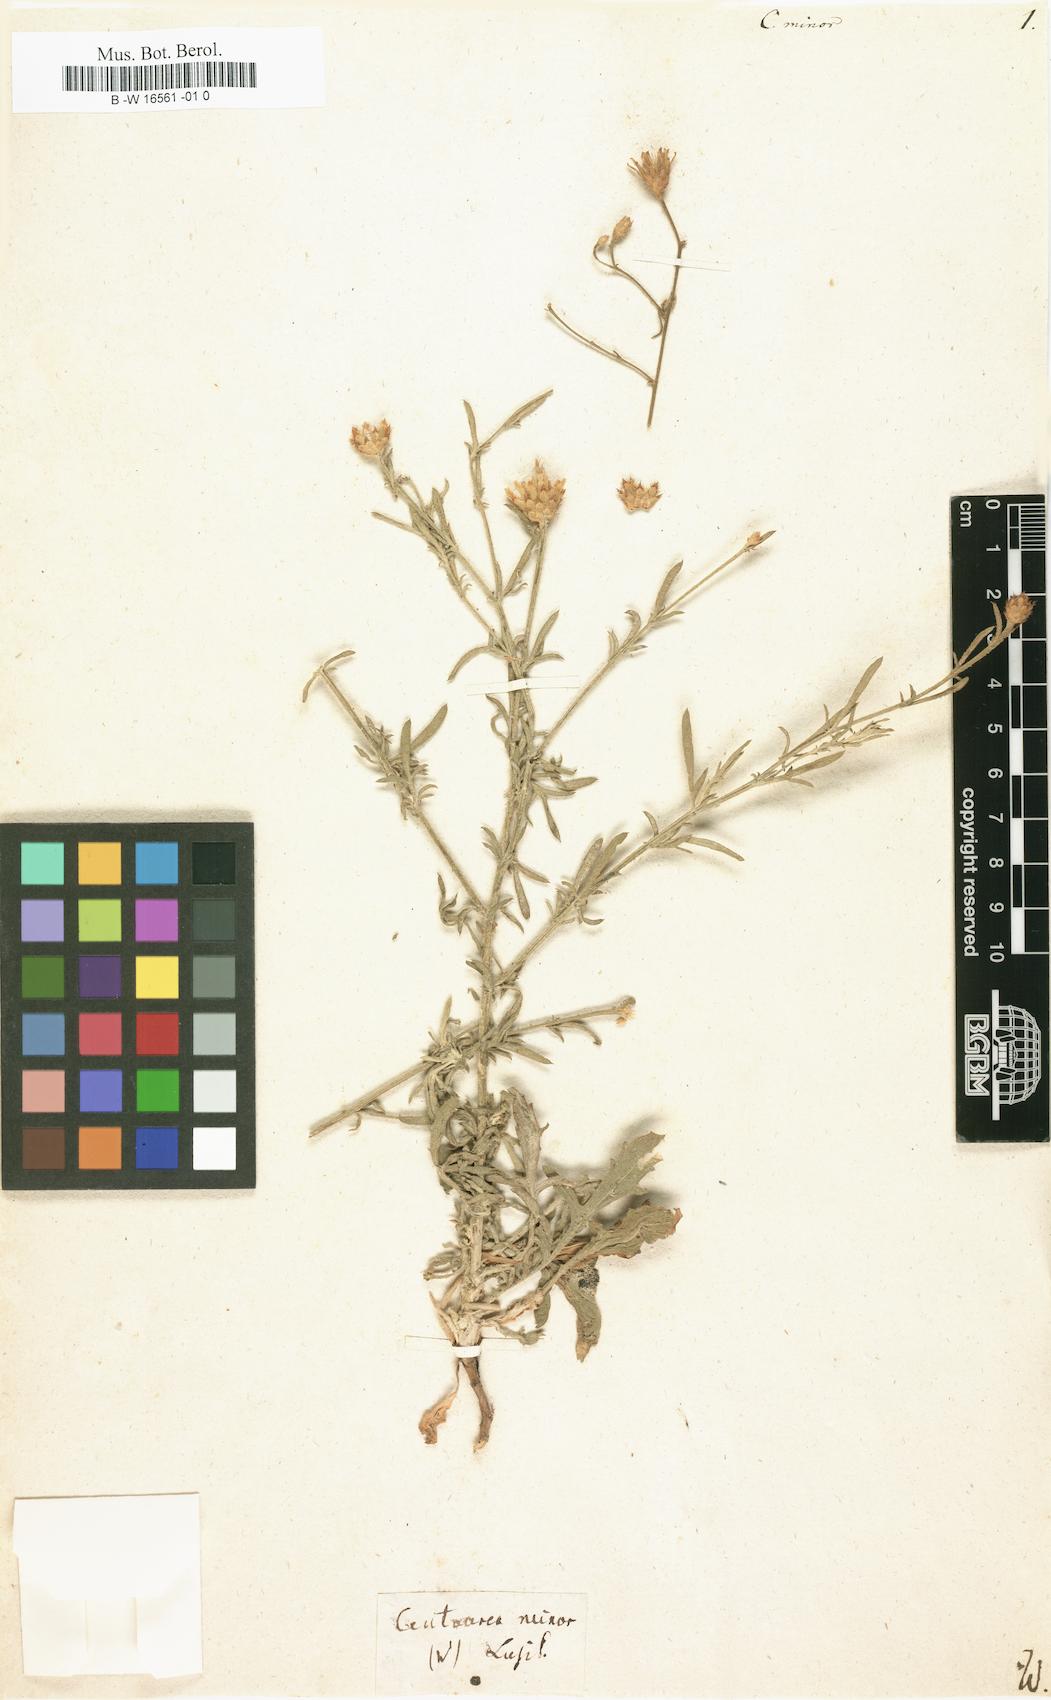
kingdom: Plantae
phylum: Tracheophyta
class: Magnoliopsida
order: Asterales
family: Asteraceae
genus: Centaurea
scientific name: Centaurea polymorpha
